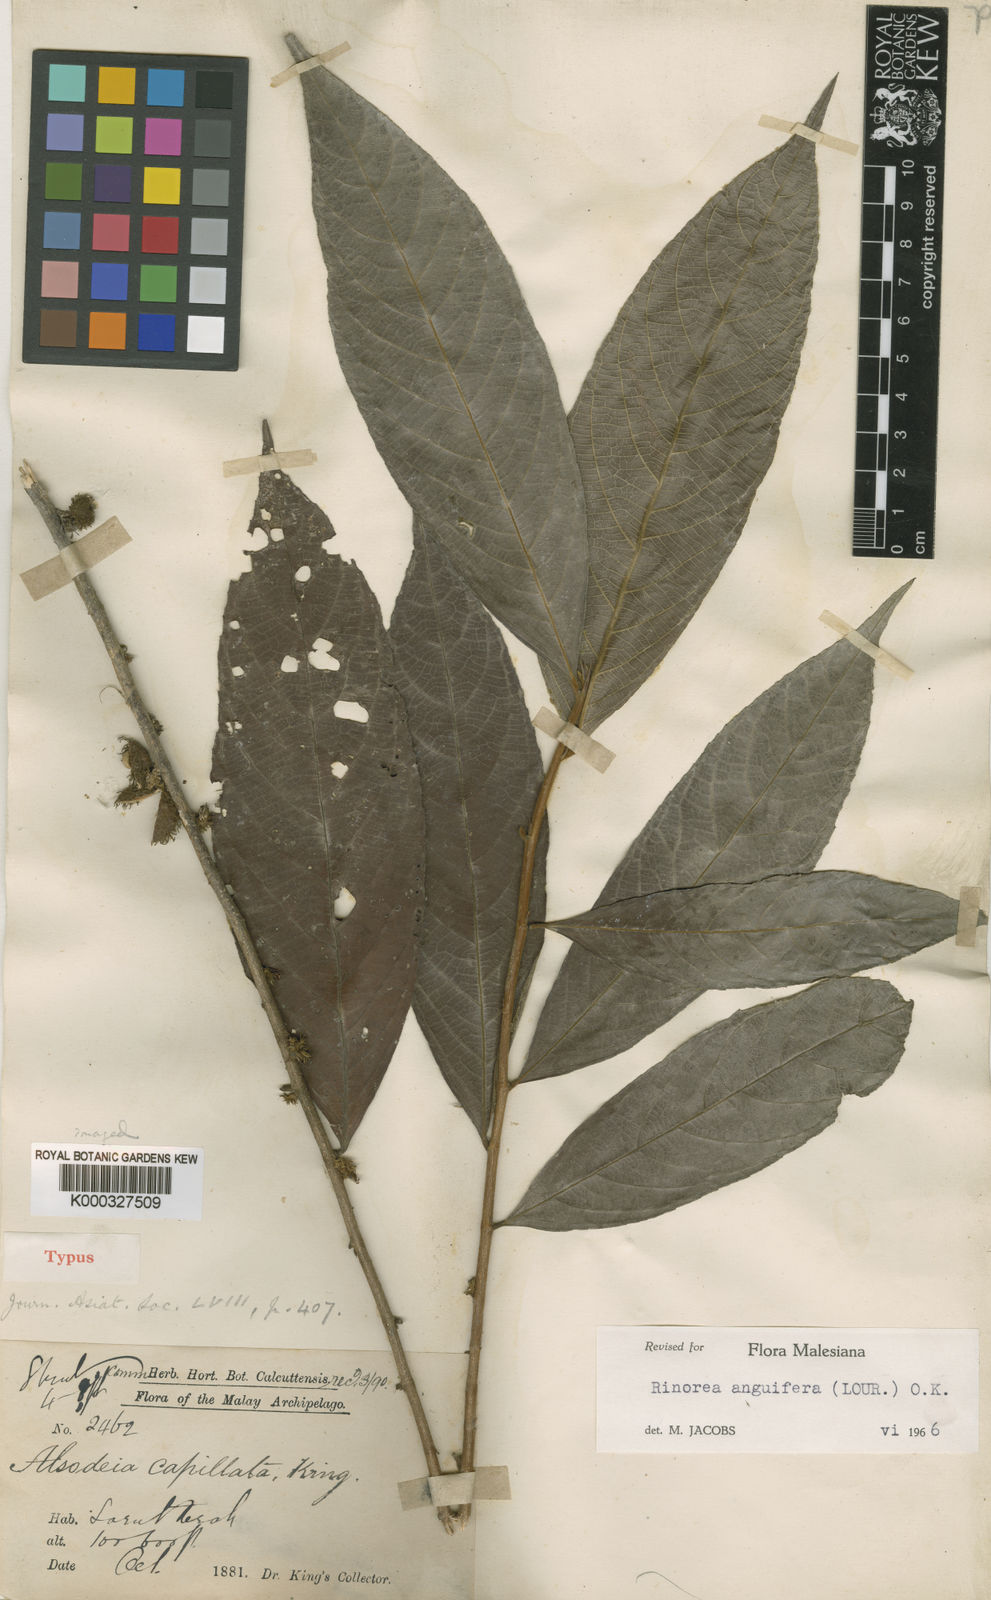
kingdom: Plantae
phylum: Tracheophyta
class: Magnoliopsida
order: Malpighiales
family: Violaceae
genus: Rinorea
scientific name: Rinorea anguifera
